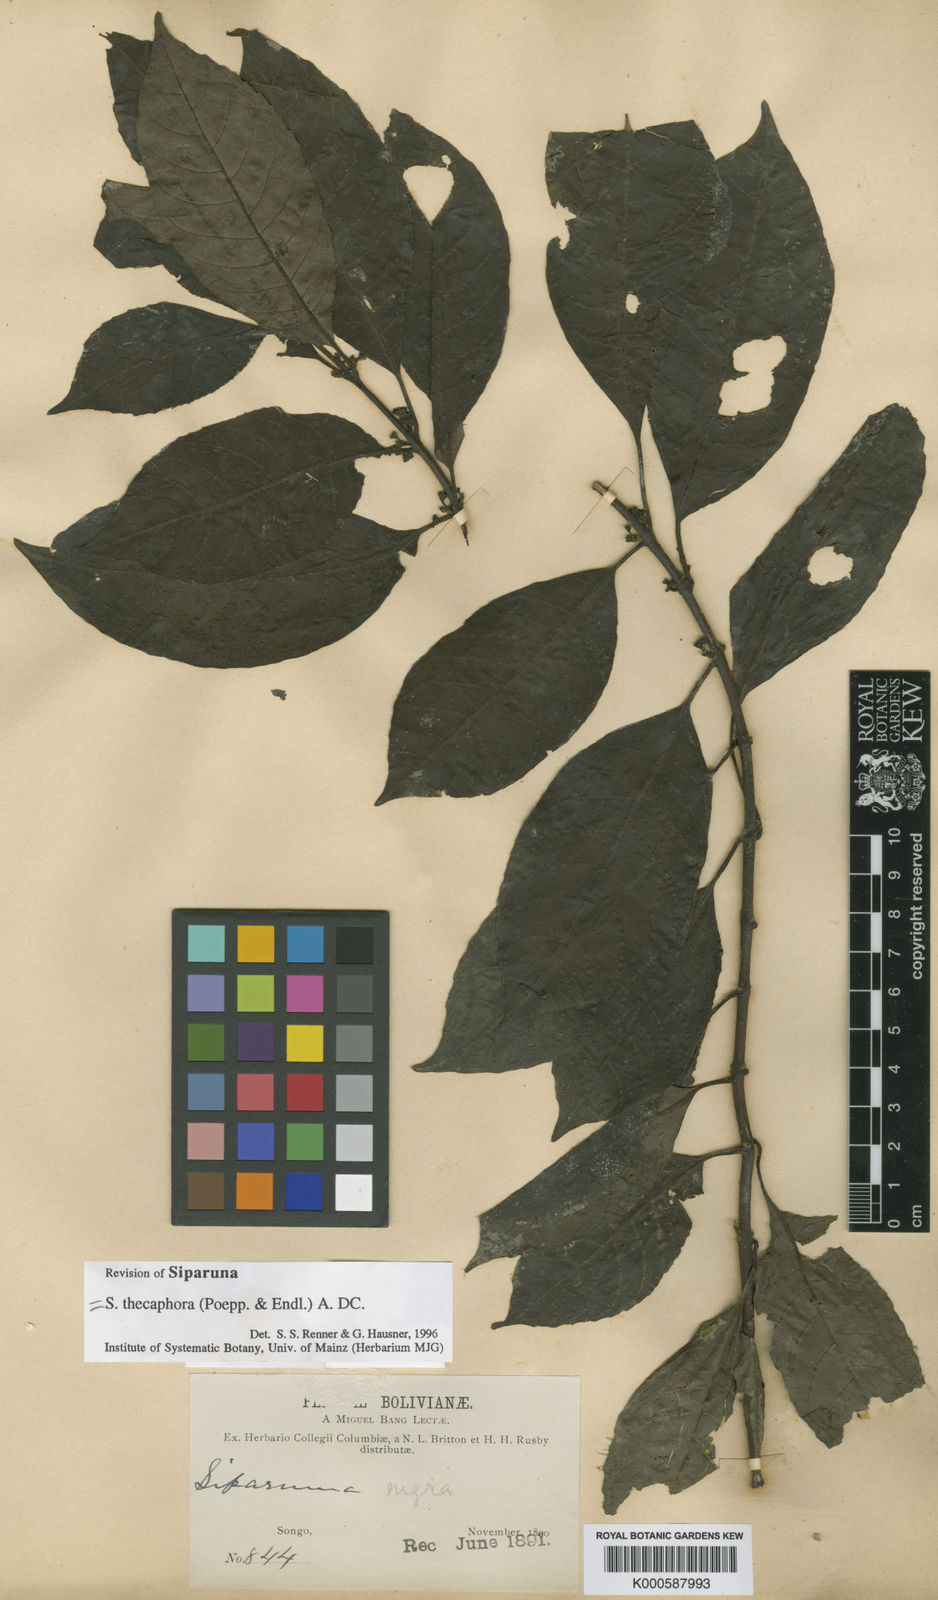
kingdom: Plantae
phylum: Tracheophyta
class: Magnoliopsida
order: Laurales
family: Siparunaceae
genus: Siparuna
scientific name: Siparuna thecaphora
